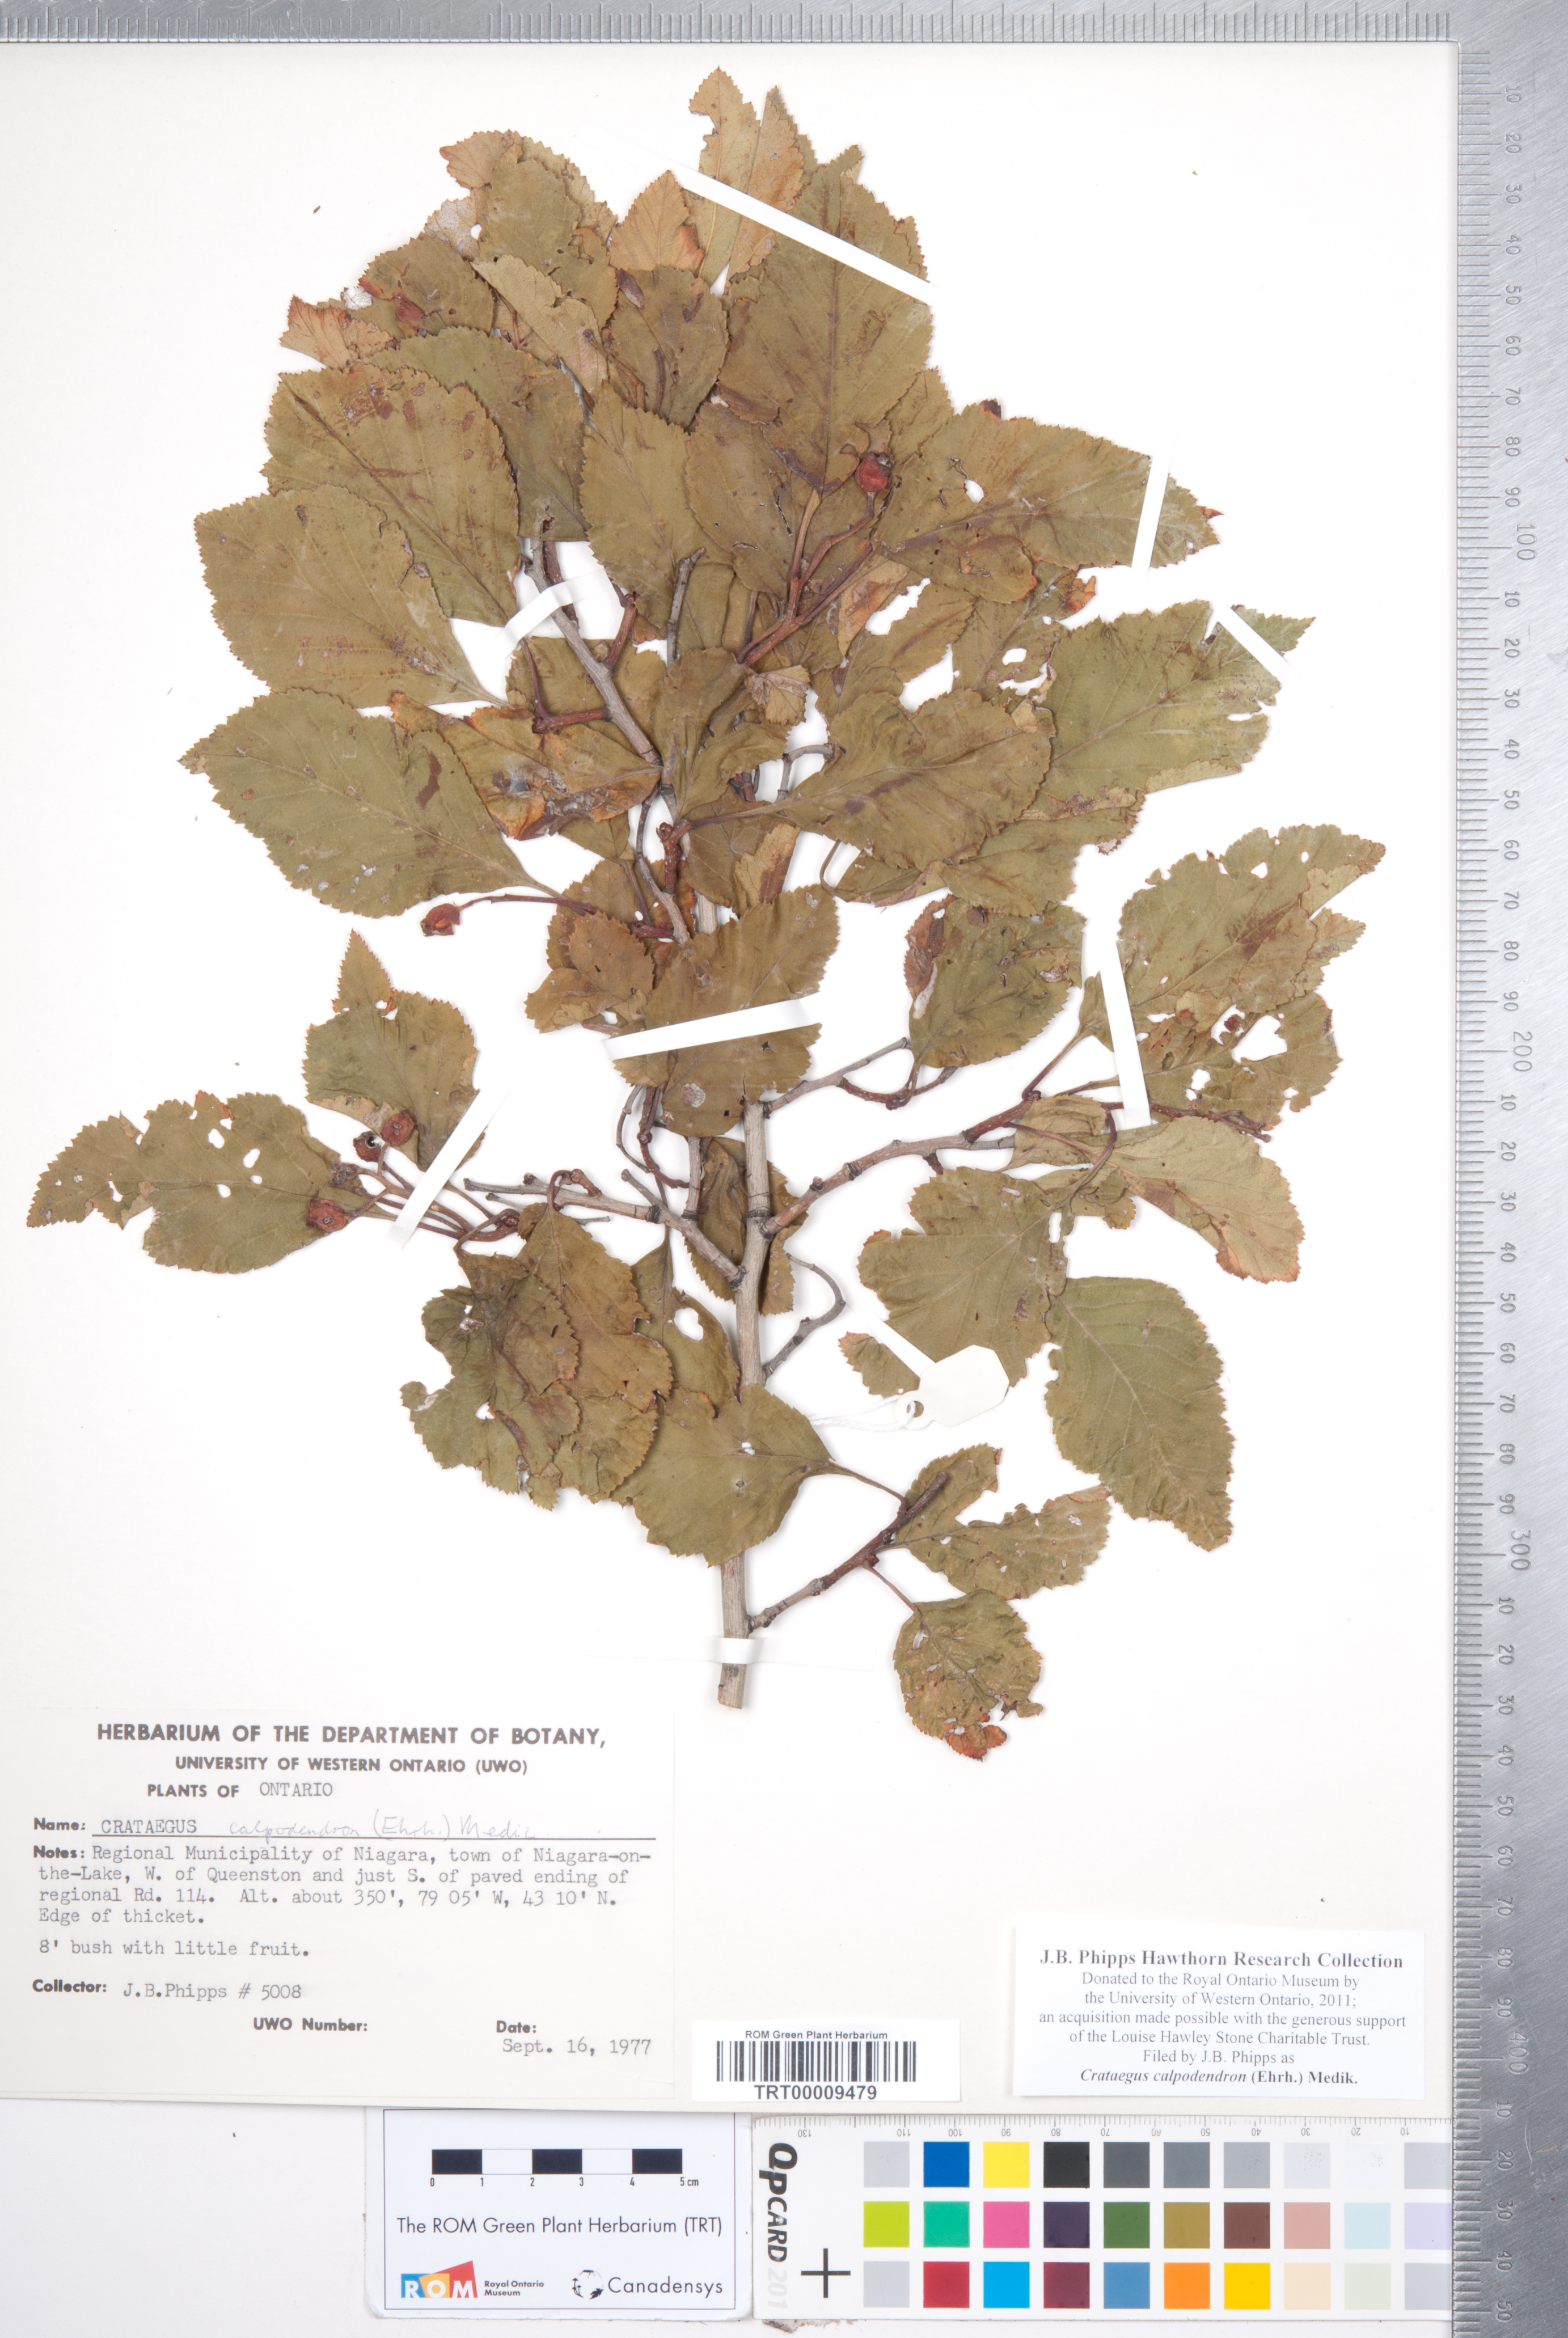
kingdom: Plantae
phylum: Tracheophyta
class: Magnoliopsida
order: Rosales
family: Rosaceae
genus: Crataegus
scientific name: Crataegus calpodendron
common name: Pear hawthorn
